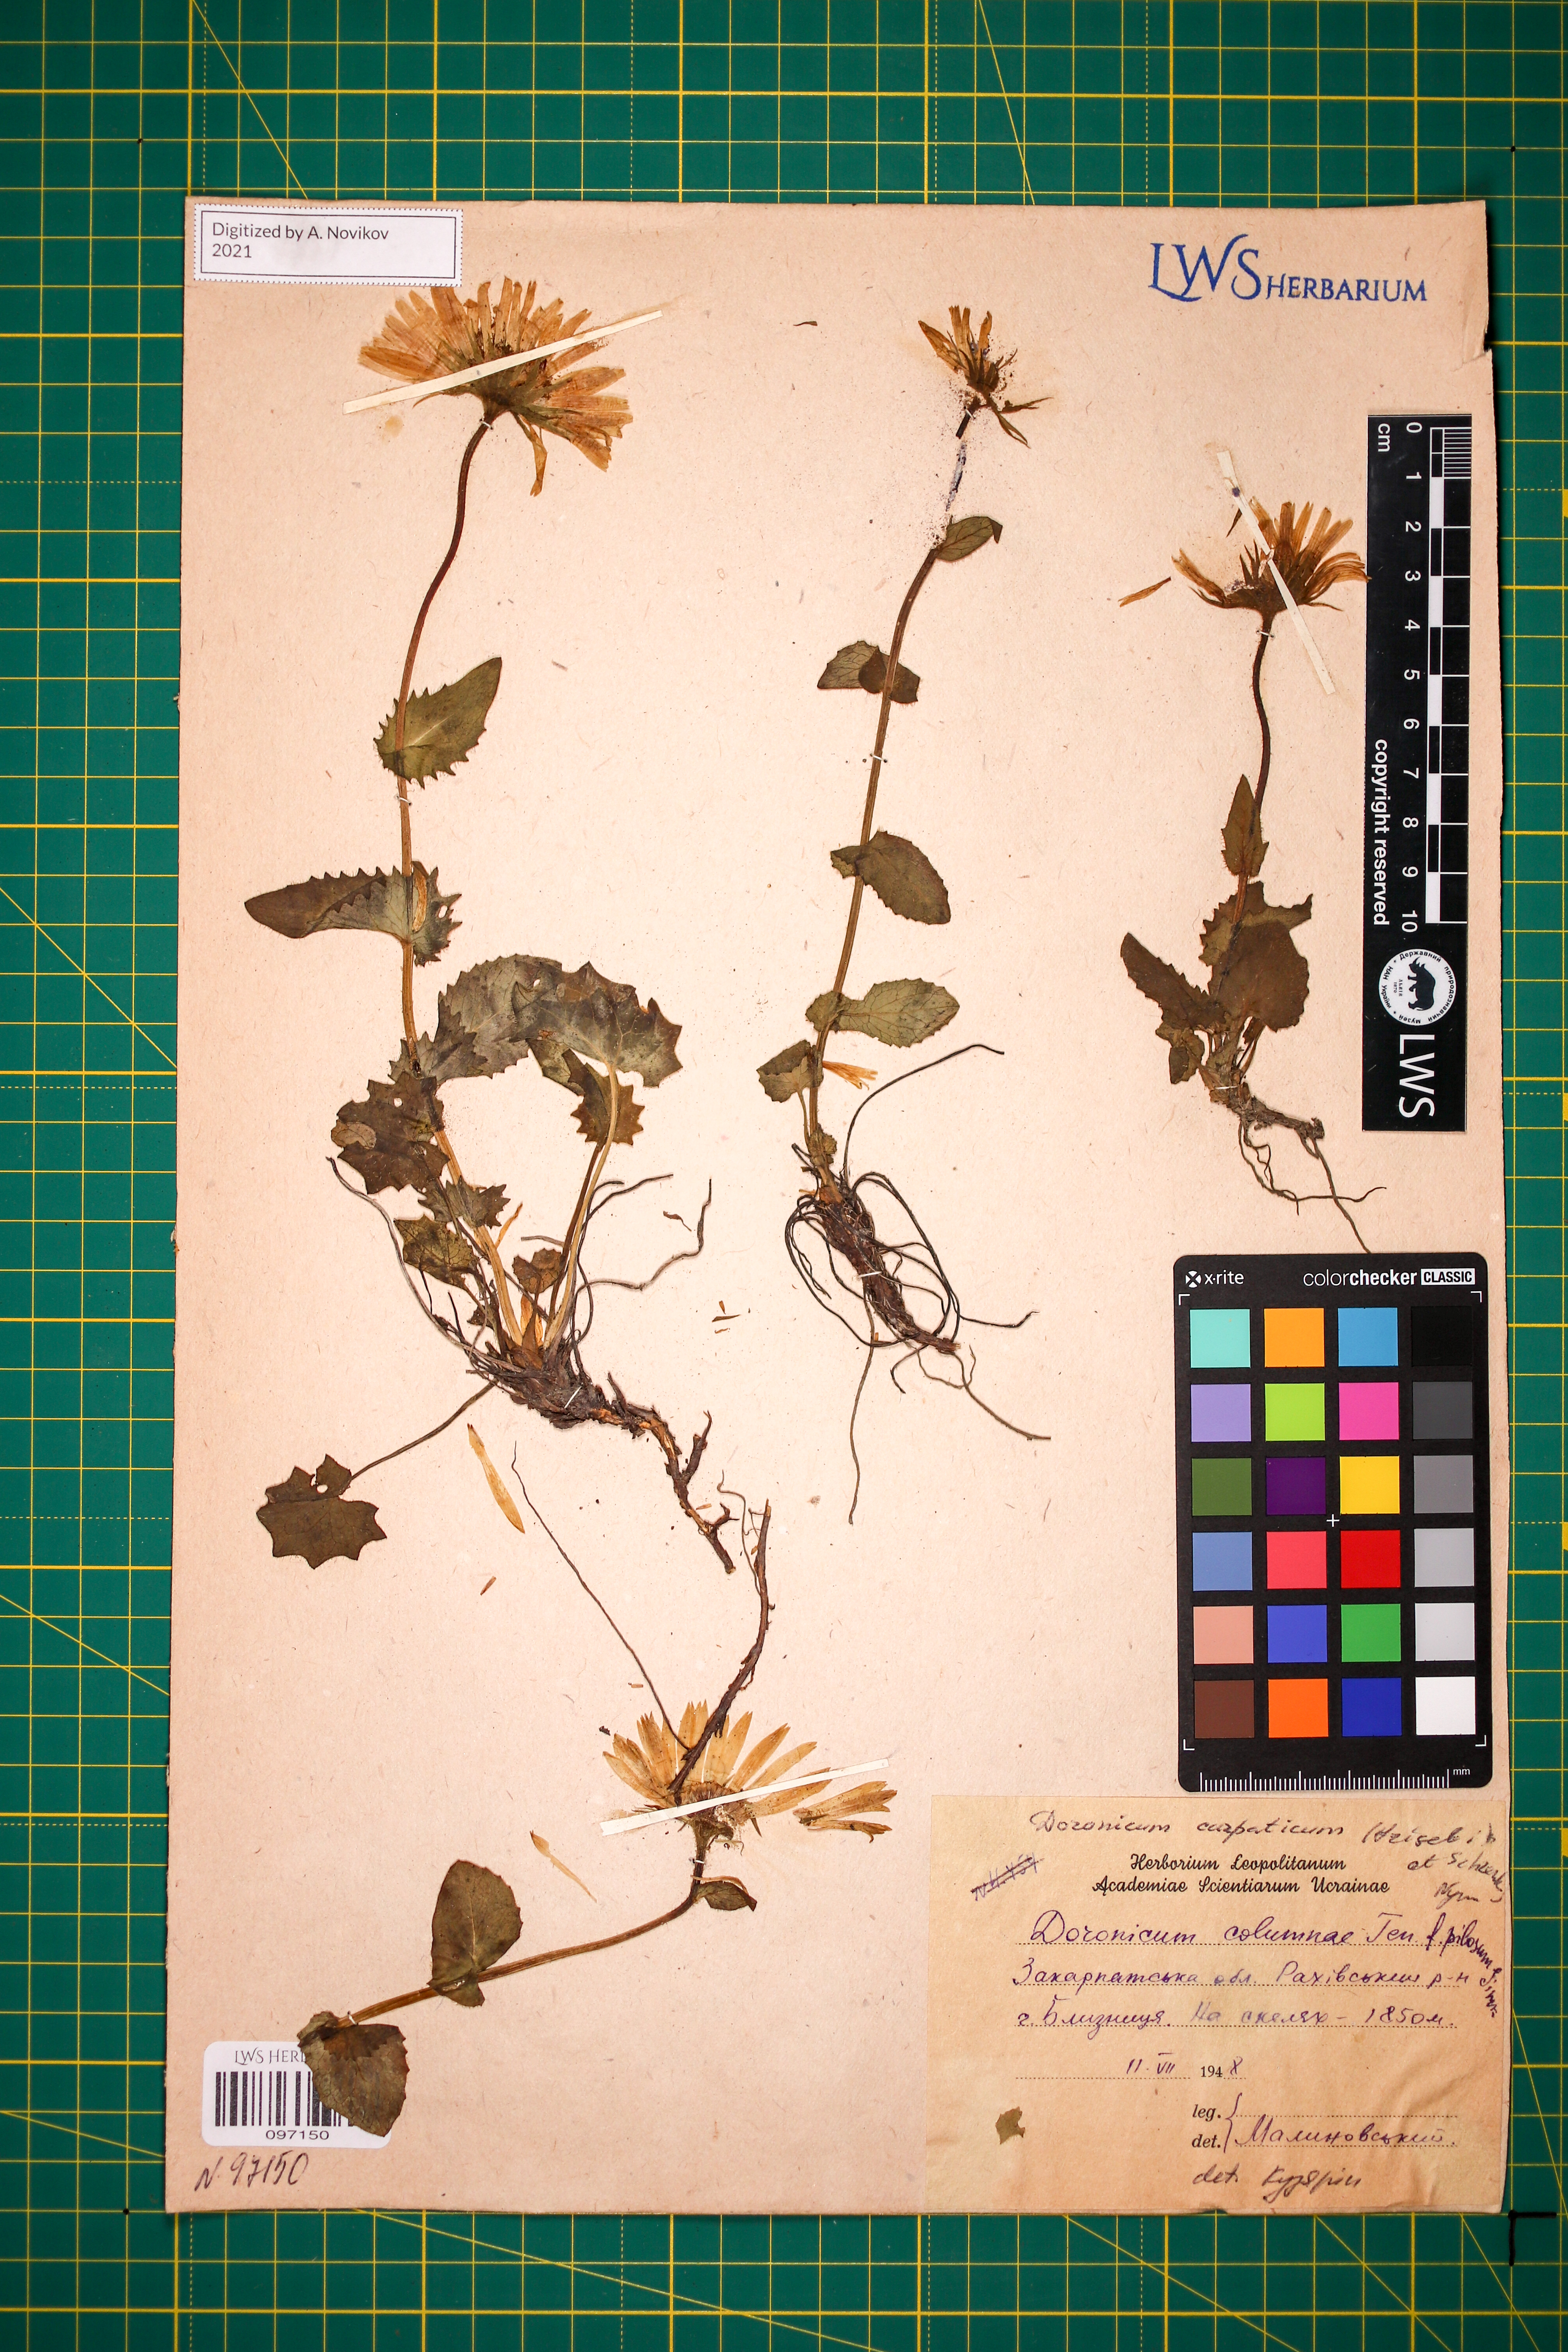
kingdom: Plantae
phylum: Tracheophyta
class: Magnoliopsida
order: Asterales
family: Asteraceae
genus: Doronicum
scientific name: Doronicum carpaticum
